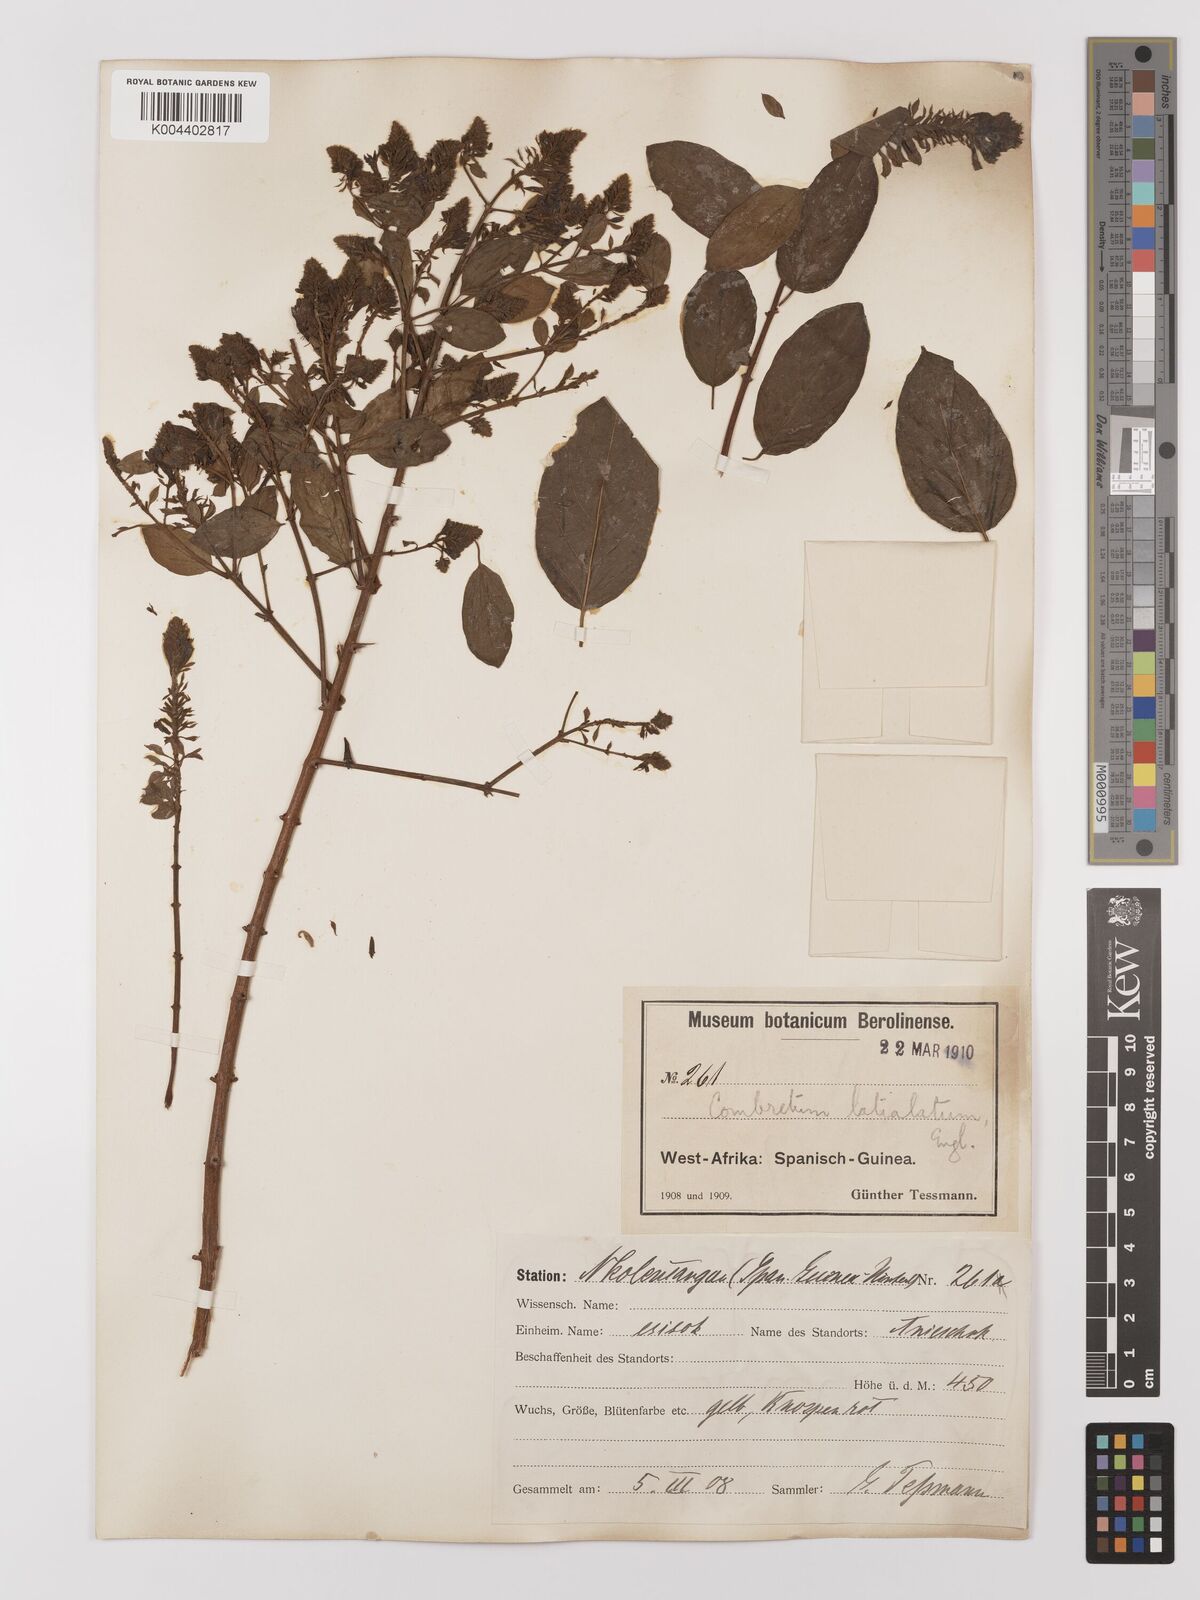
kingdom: Plantae
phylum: Tracheophyta
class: Magnoliopsida
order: Myrtales
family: Combretaceae
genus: Combretum
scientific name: Combretum latialatum
